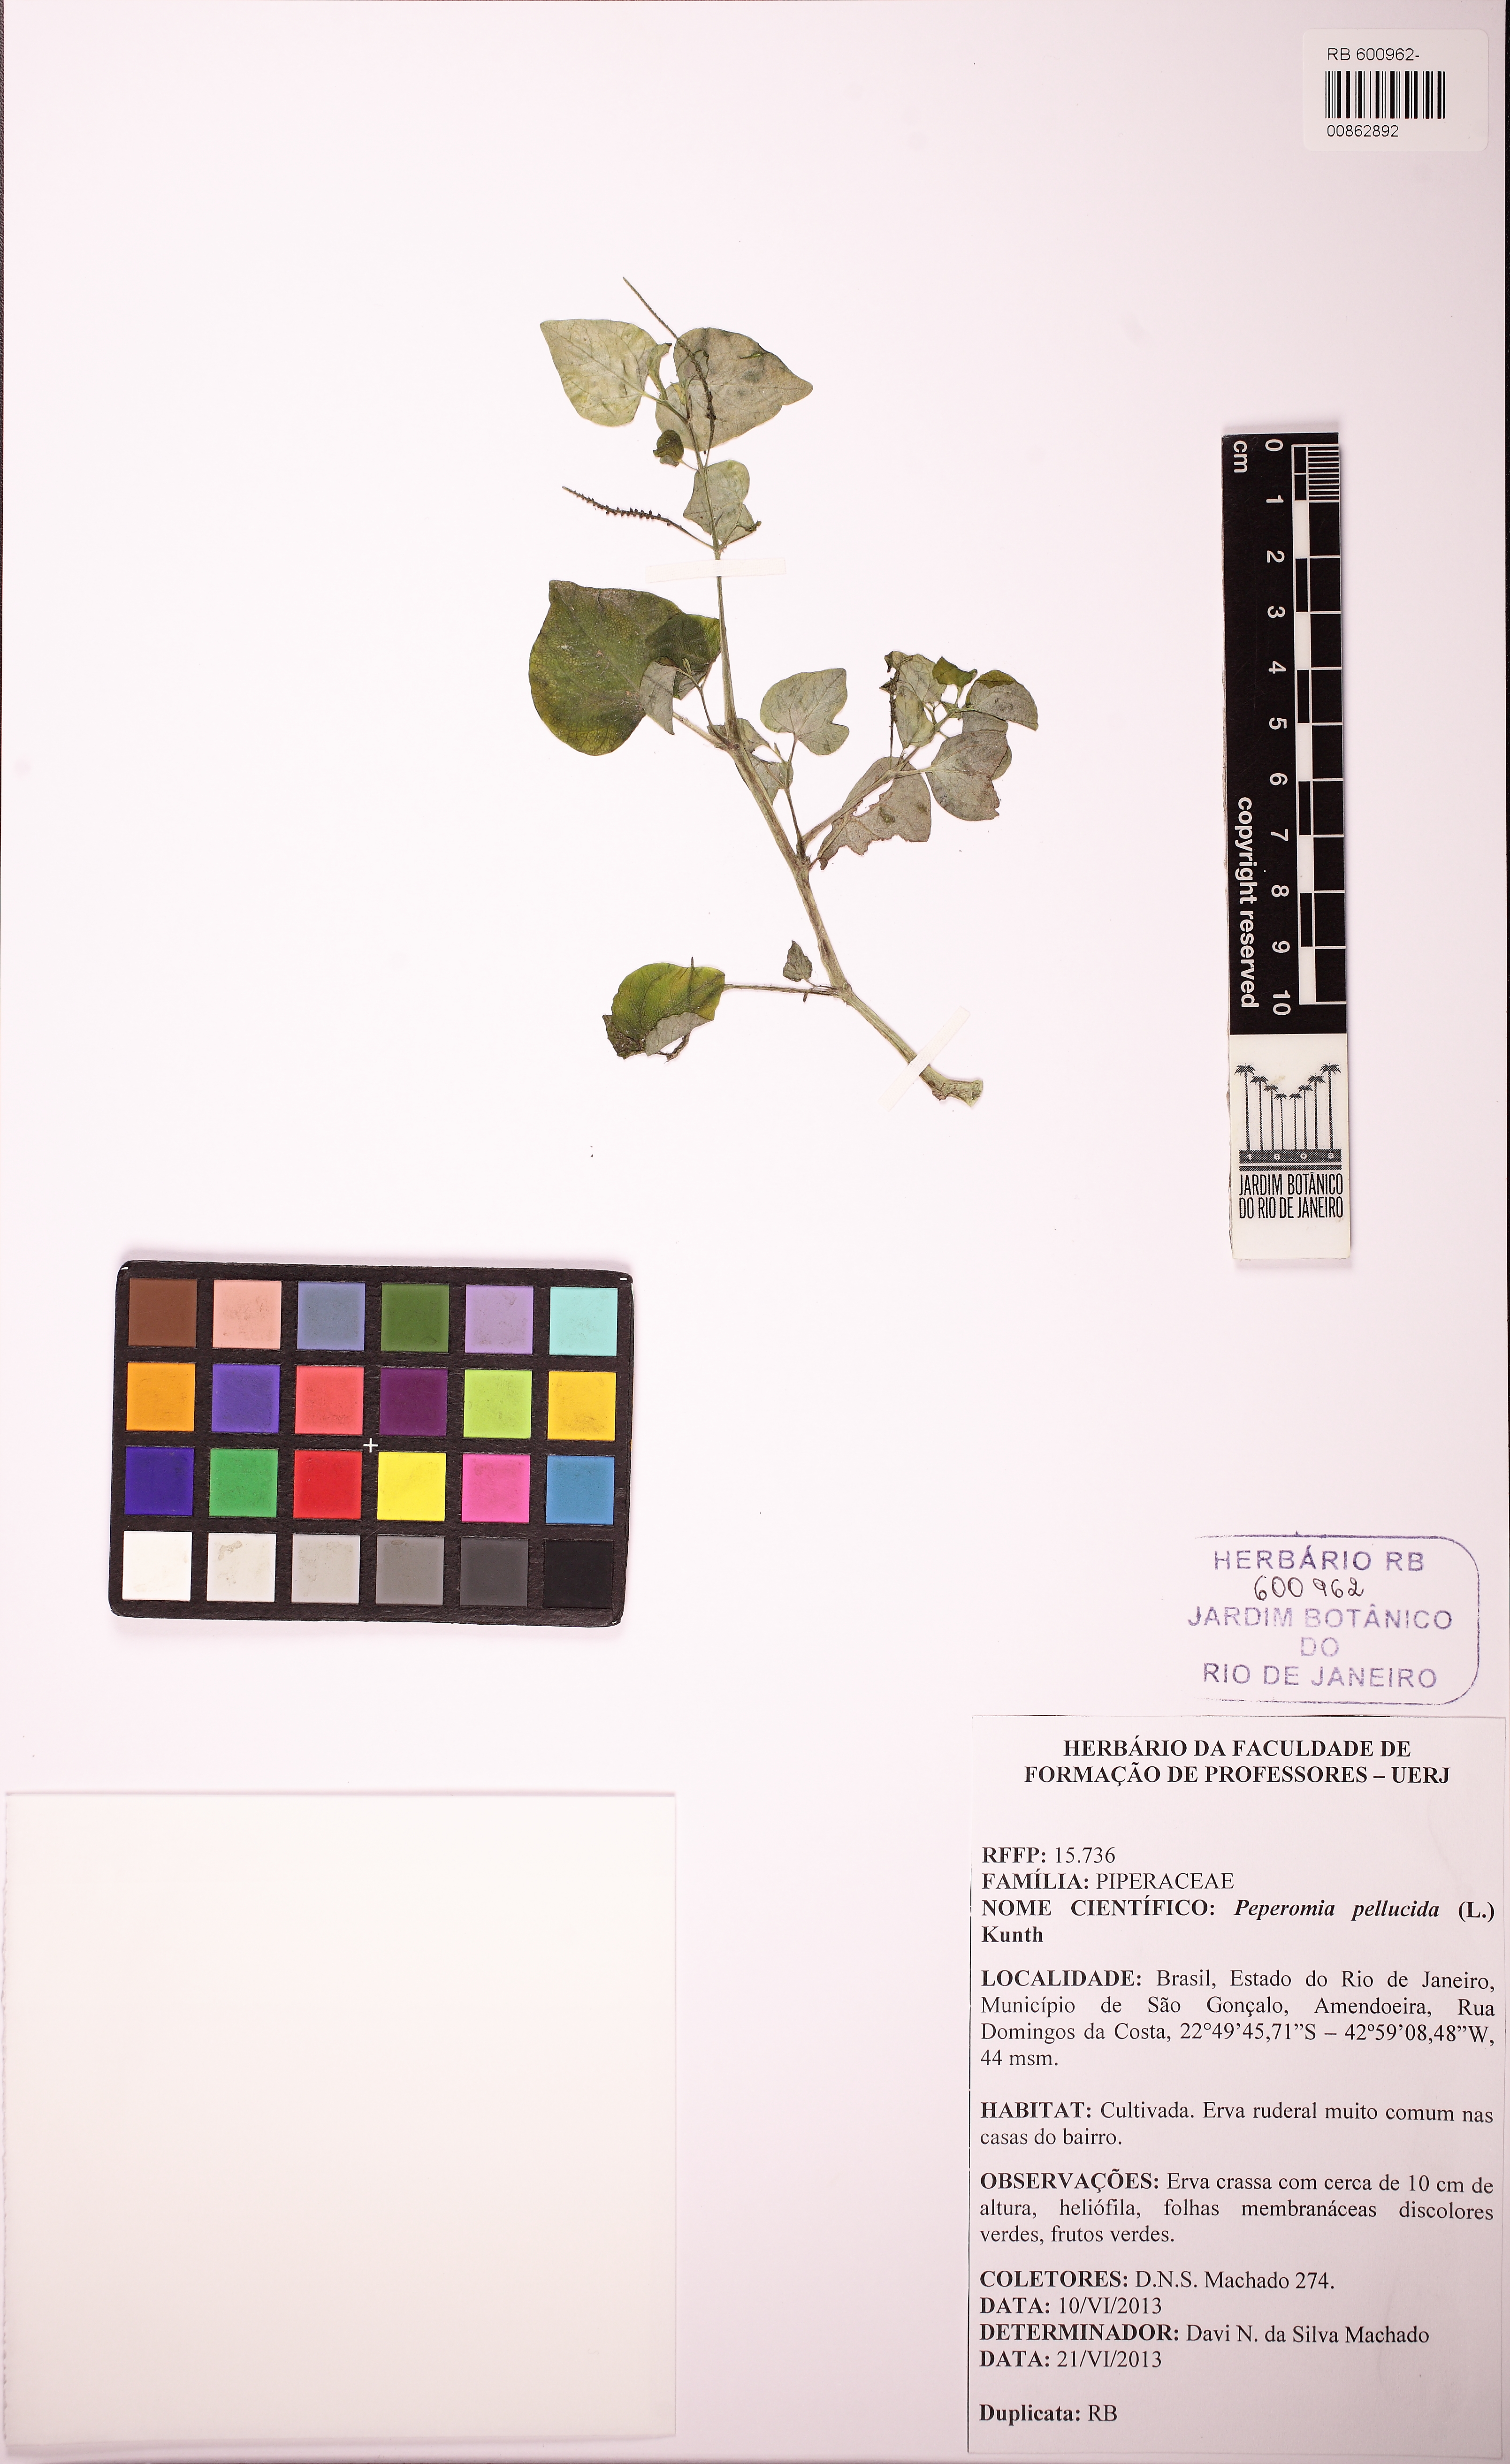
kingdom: Plantae
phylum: Tracheophyta
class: Magnoliopsida
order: Piperales
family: Piperaceae
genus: Peperomia
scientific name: Peperomia pellucida
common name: Man to man
